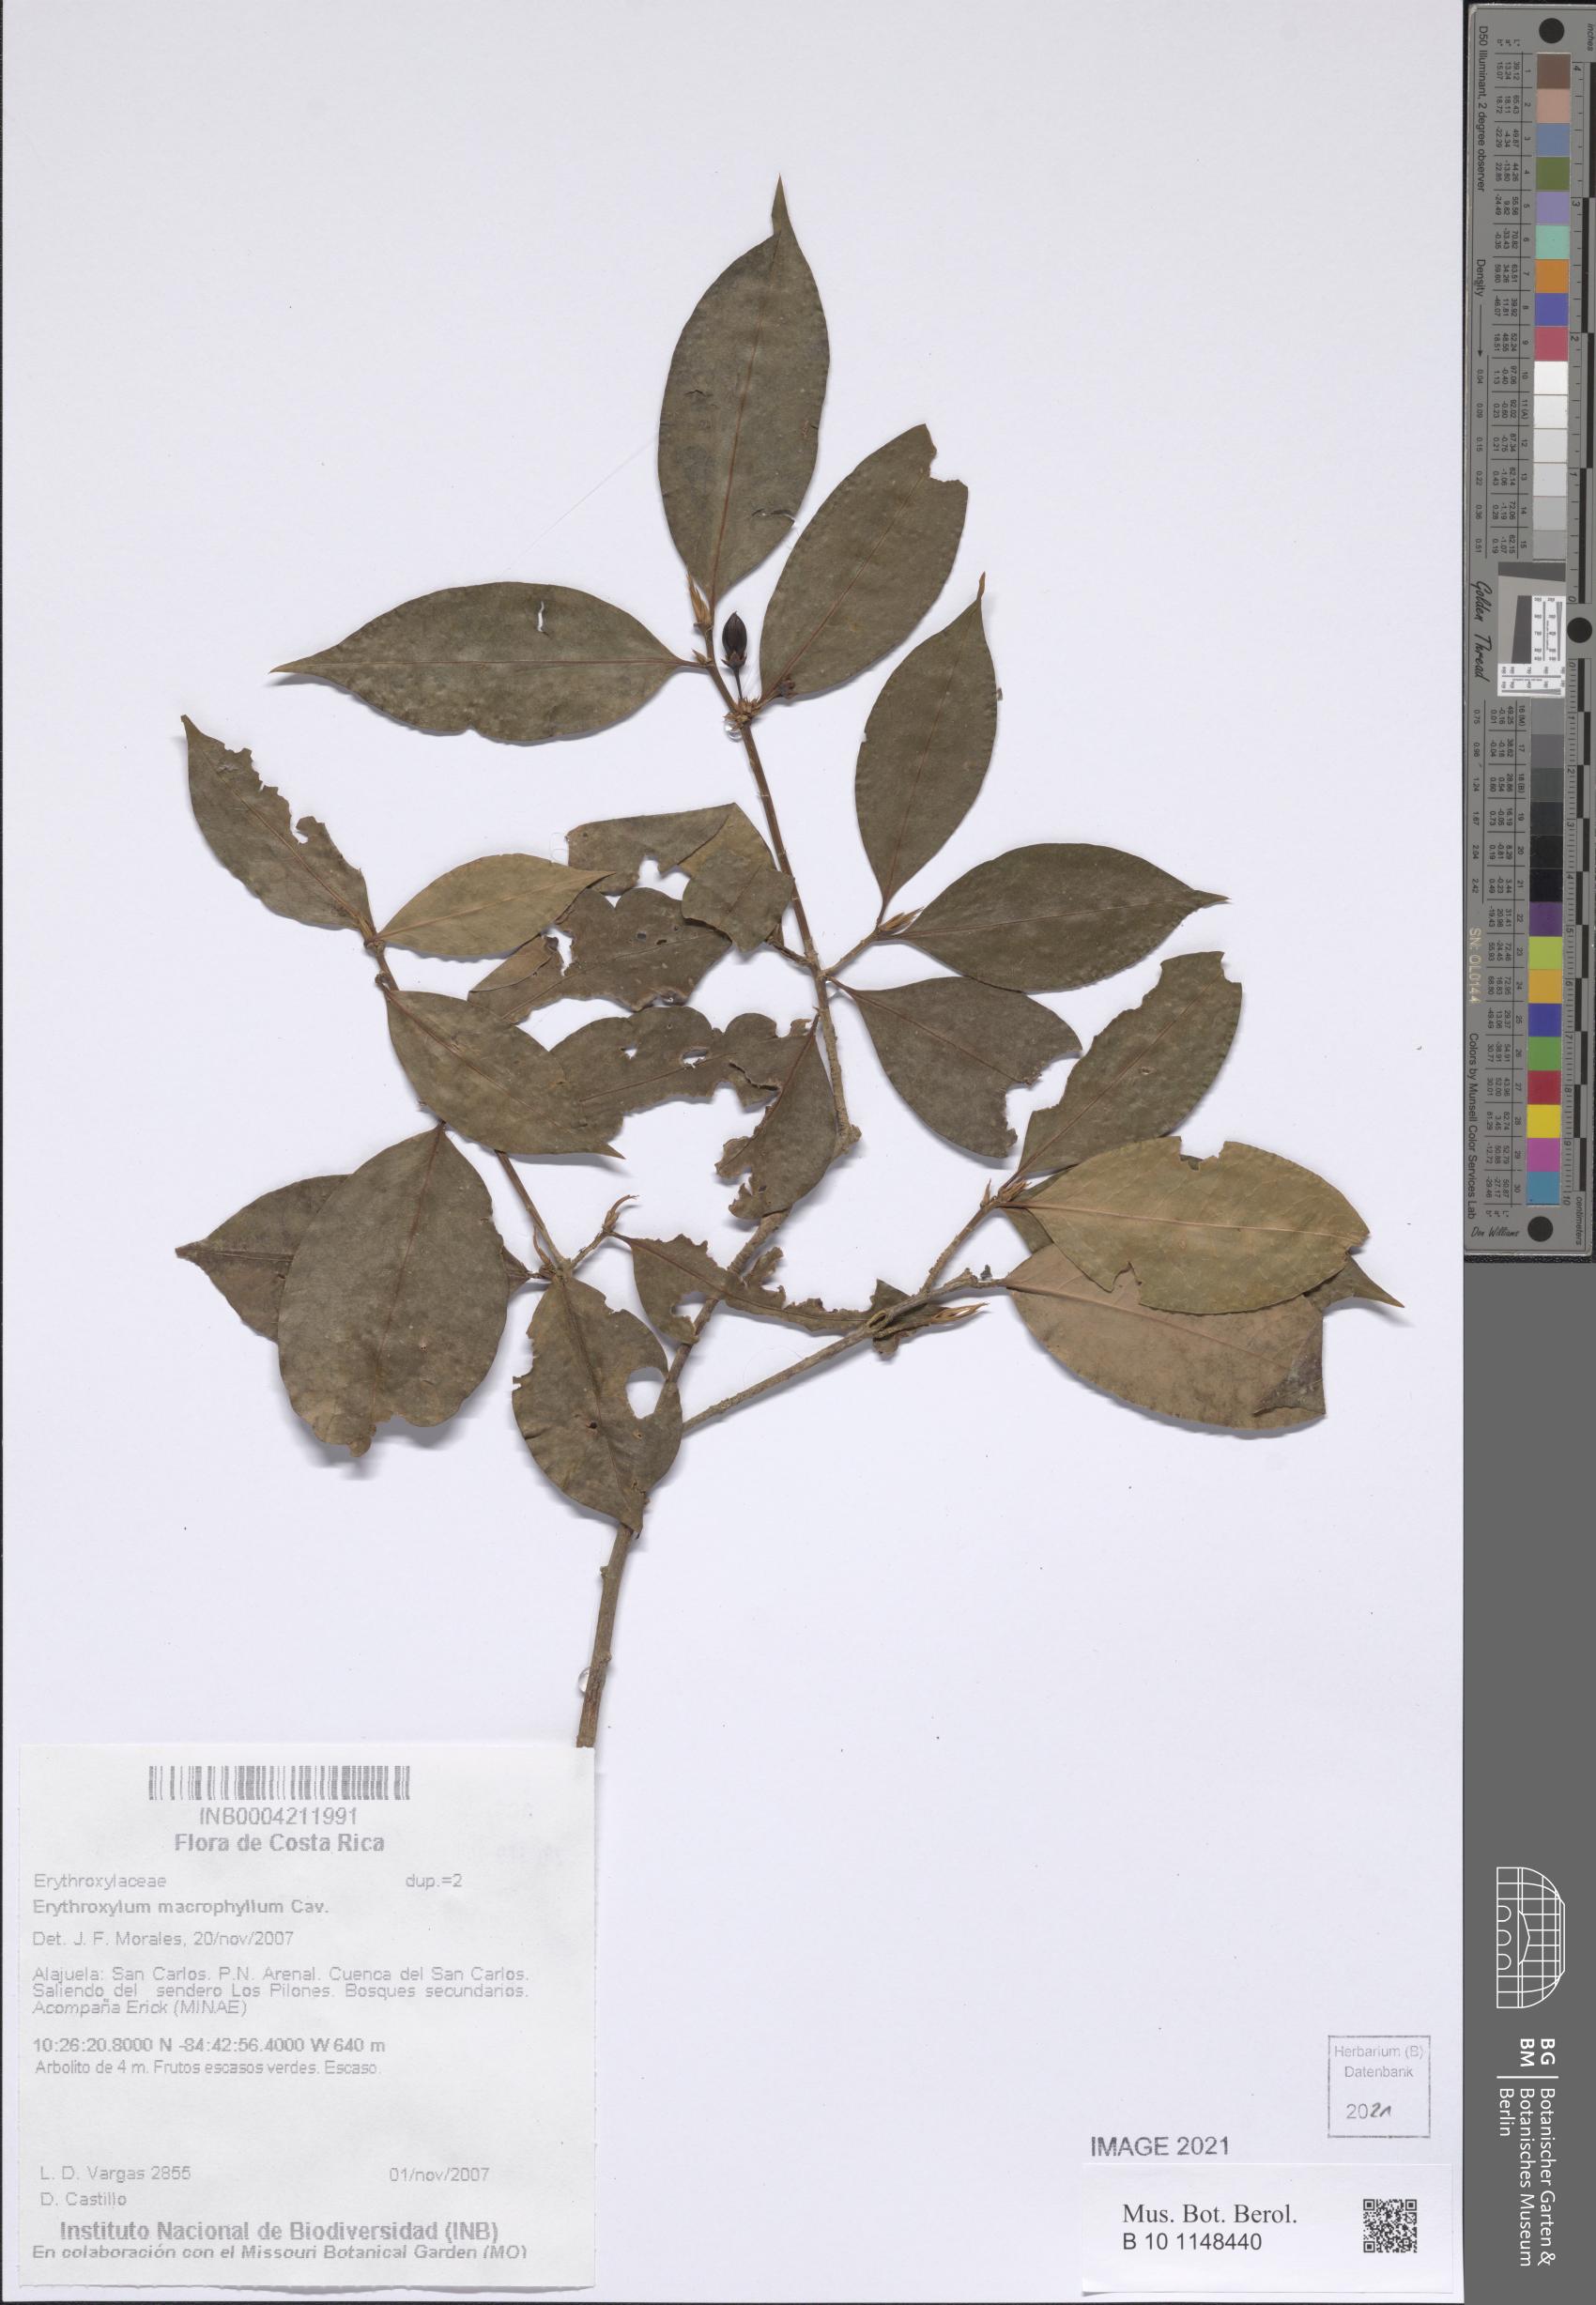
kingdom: Plantae
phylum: Tracheophyta
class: Magnoliopsida
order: Malpighiales
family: Erythroxylaceae
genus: Erythroxylum
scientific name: Erythroxylum macrophyllum
